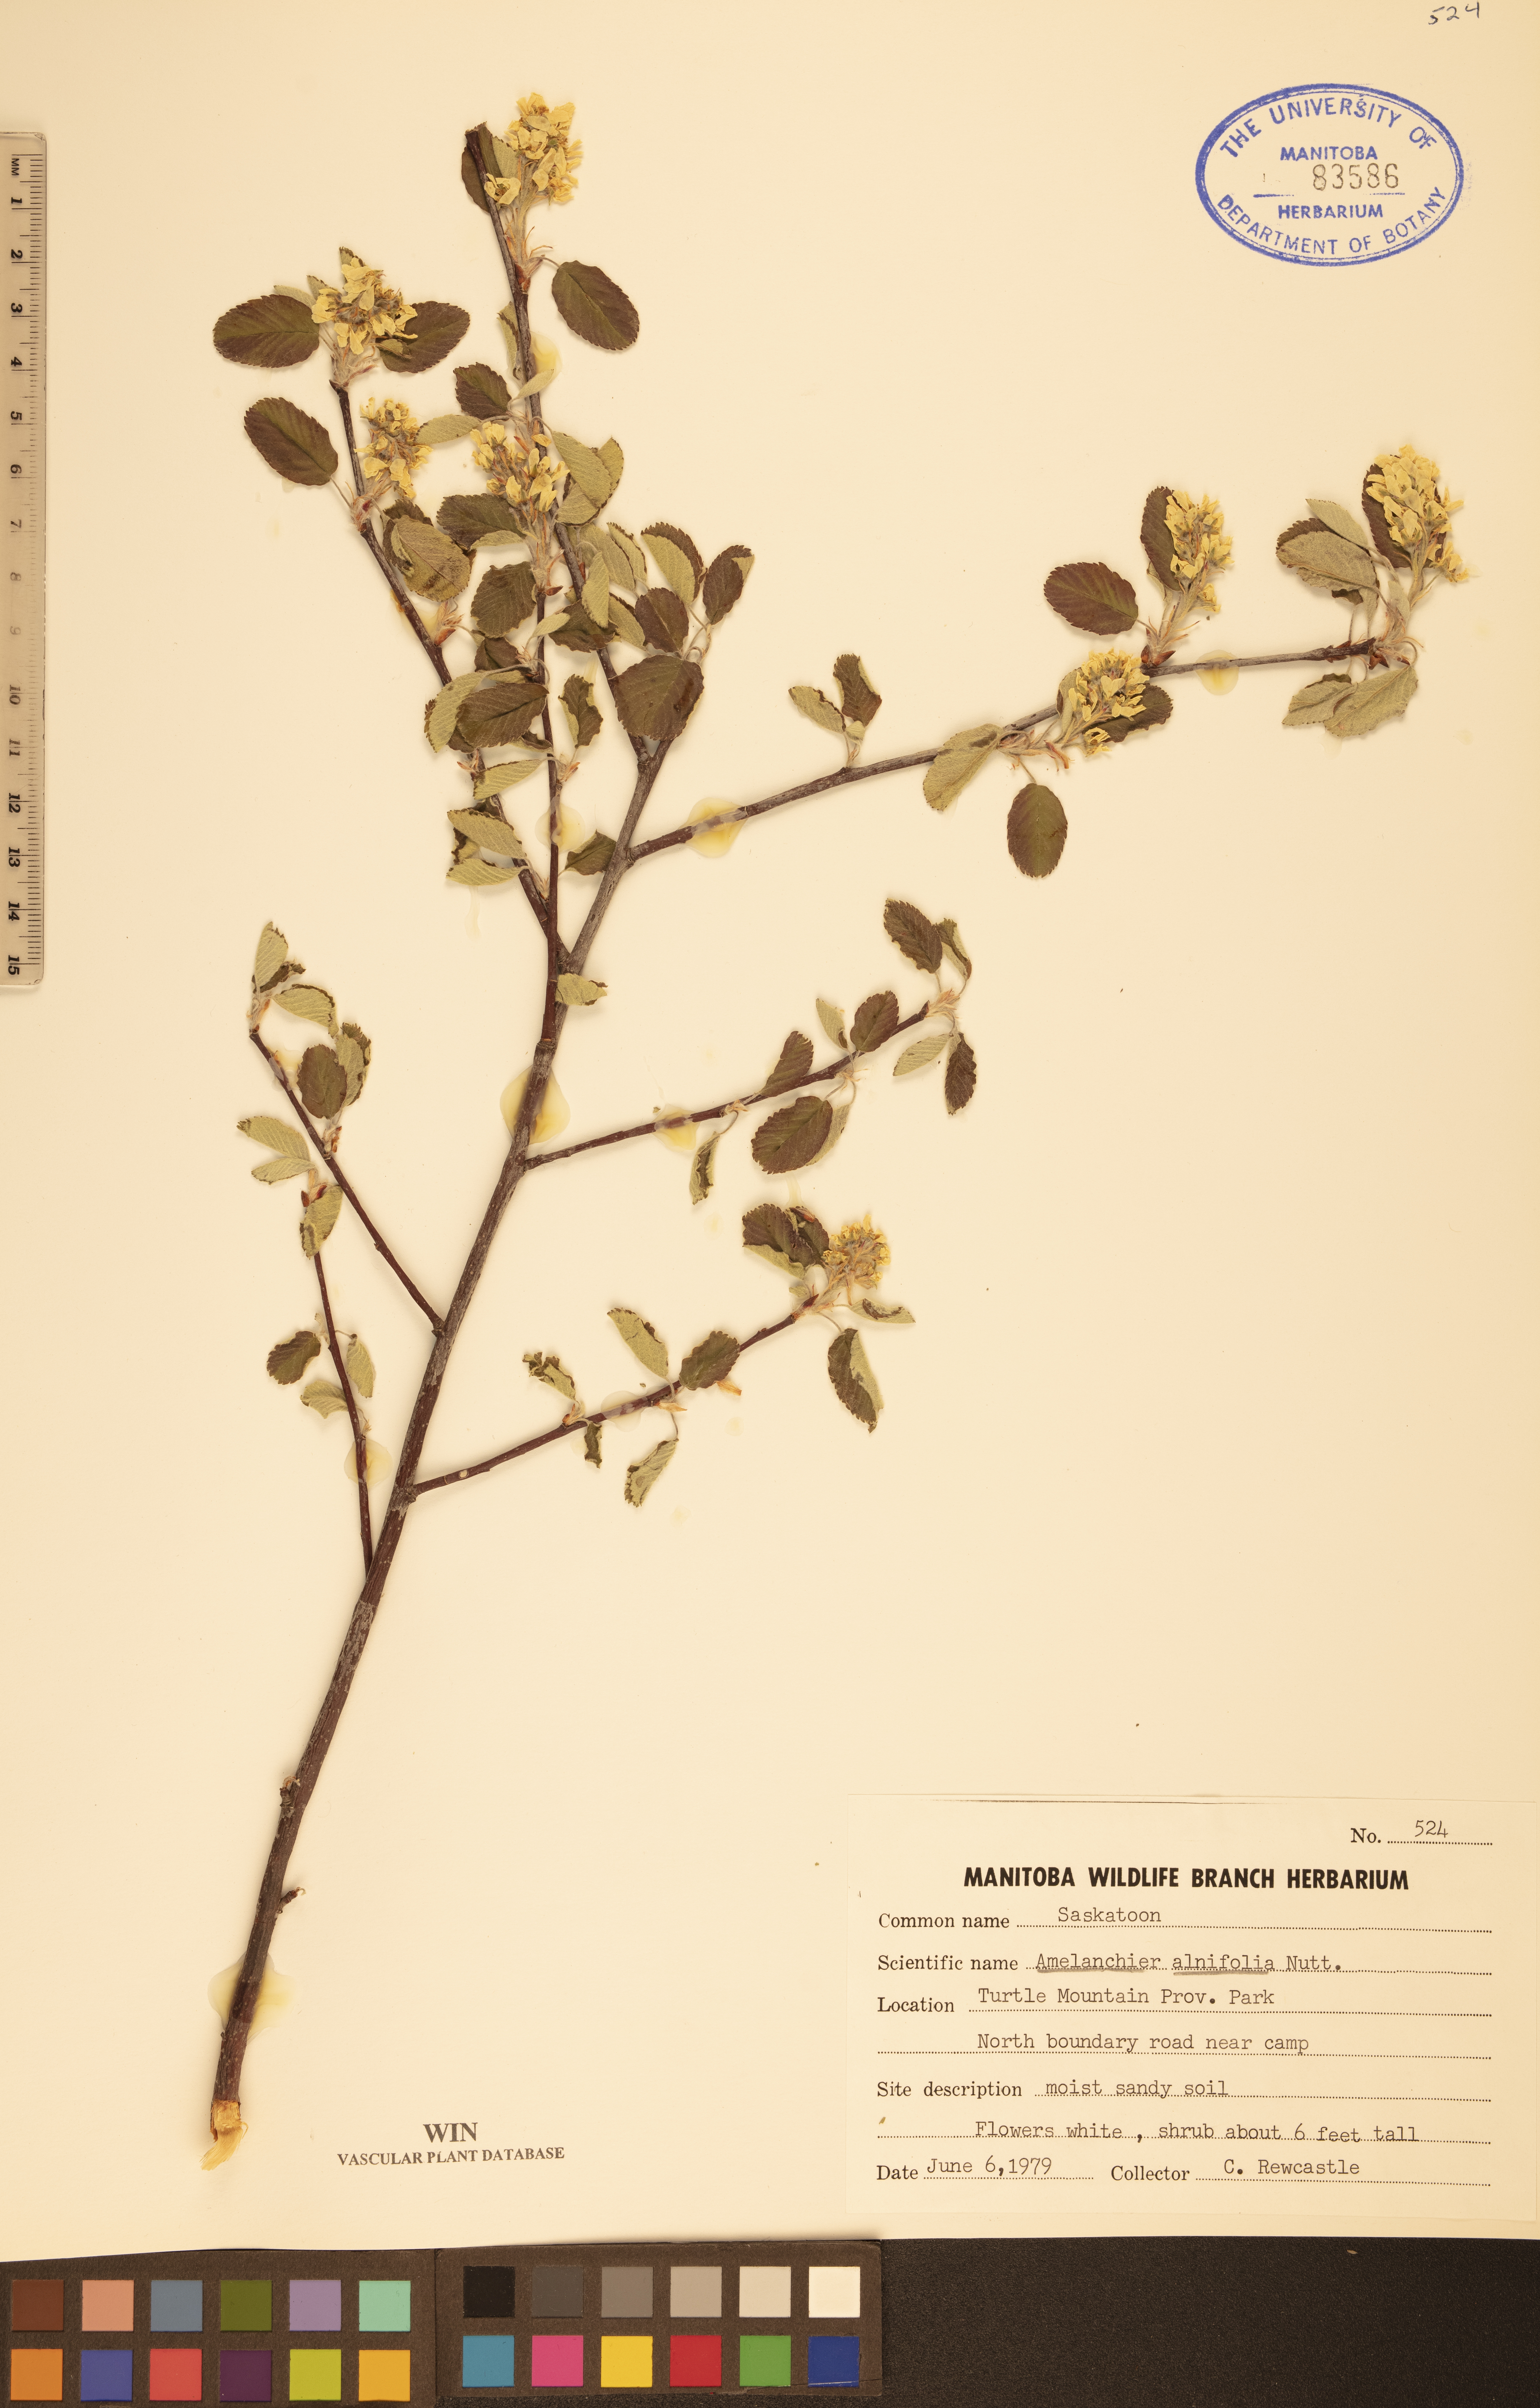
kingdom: Plantae
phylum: Tracheophyta
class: Magnoliopsida
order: Rosales
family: Rosaceae
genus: Amelanchier
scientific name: Amelanchier alnifolia
